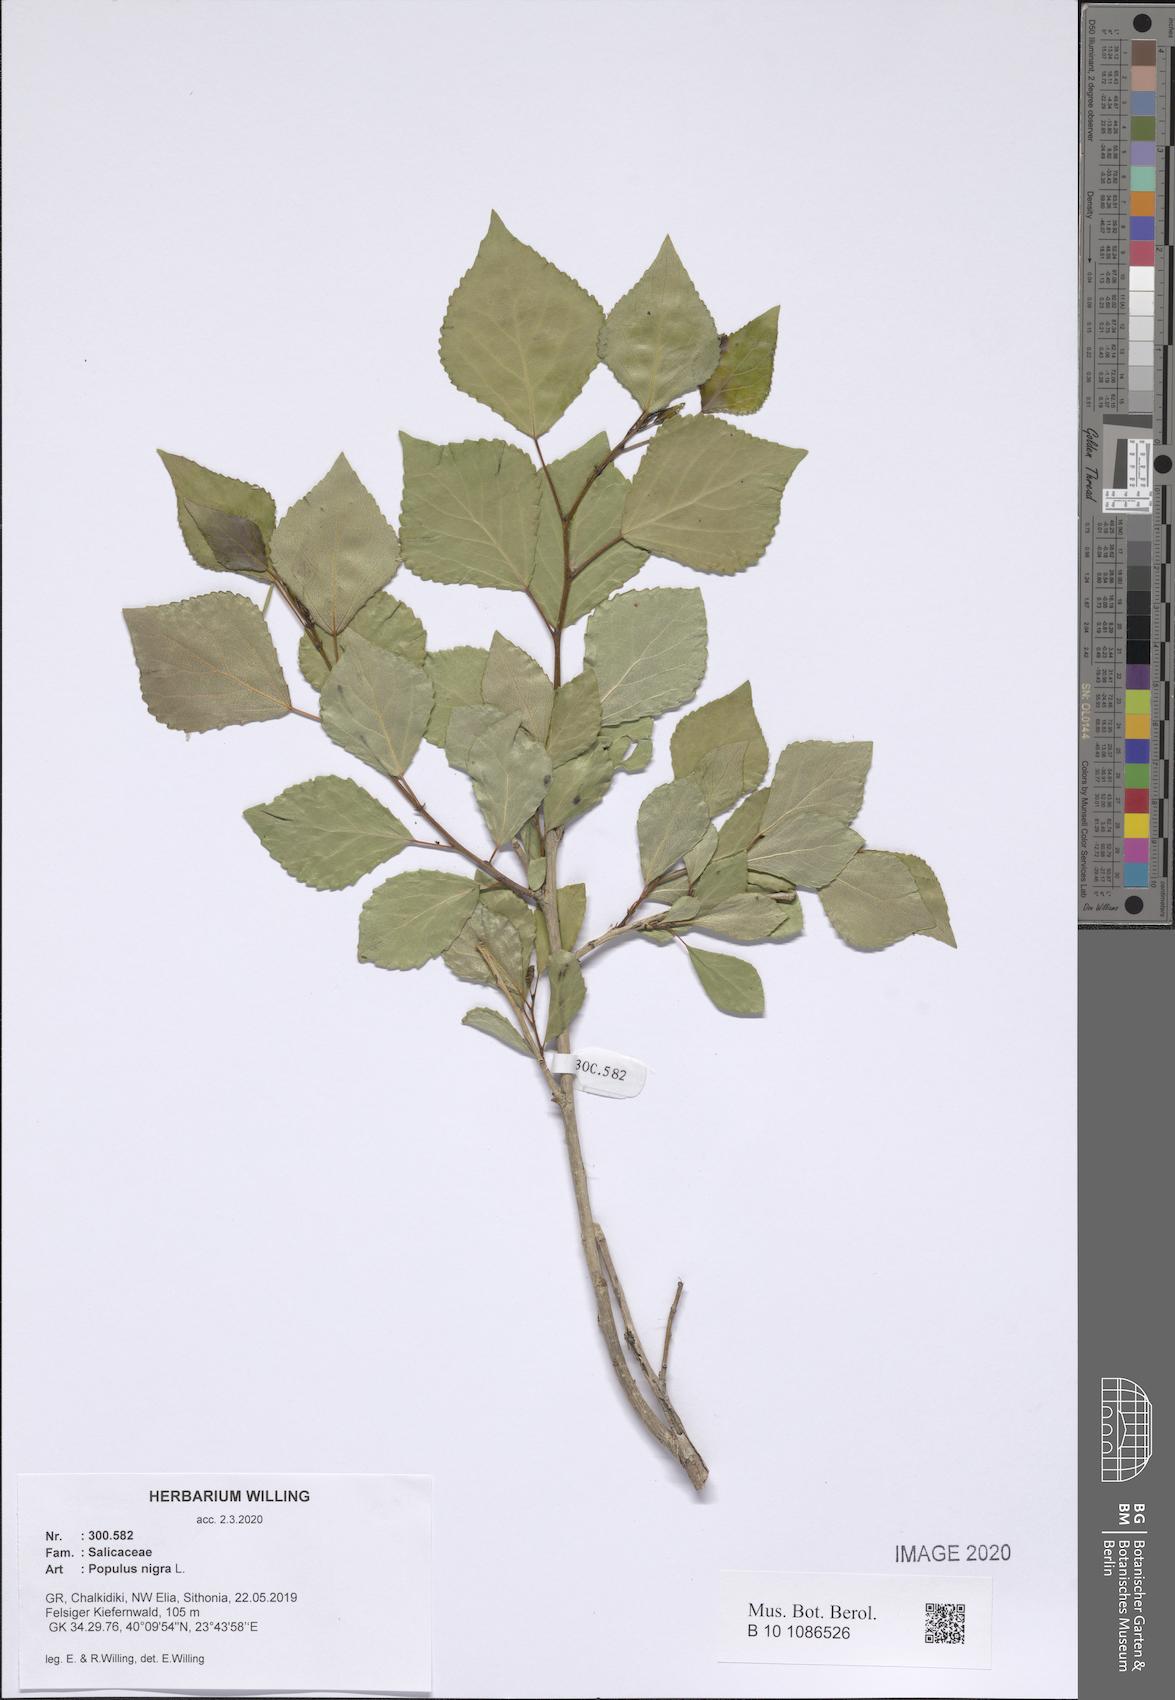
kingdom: Plantae
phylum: Tracheophyta
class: Magnoliopsida
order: Malpighiales
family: Salicaceae
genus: Populus
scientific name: Populus nigra
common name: Black poplar
